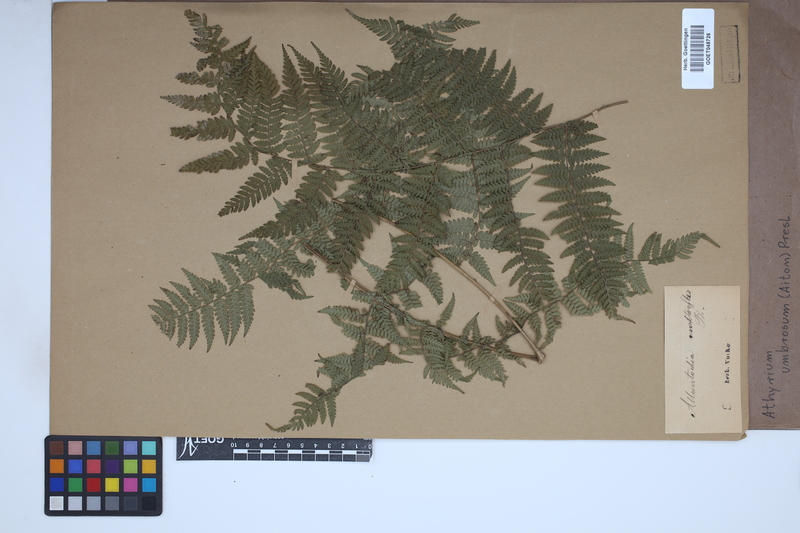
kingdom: Plantae
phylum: Tracheophyta
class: Polypodiopsida
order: Polypodiales
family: Athyriaceae
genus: Diplazium
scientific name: Diplazium caudatum
